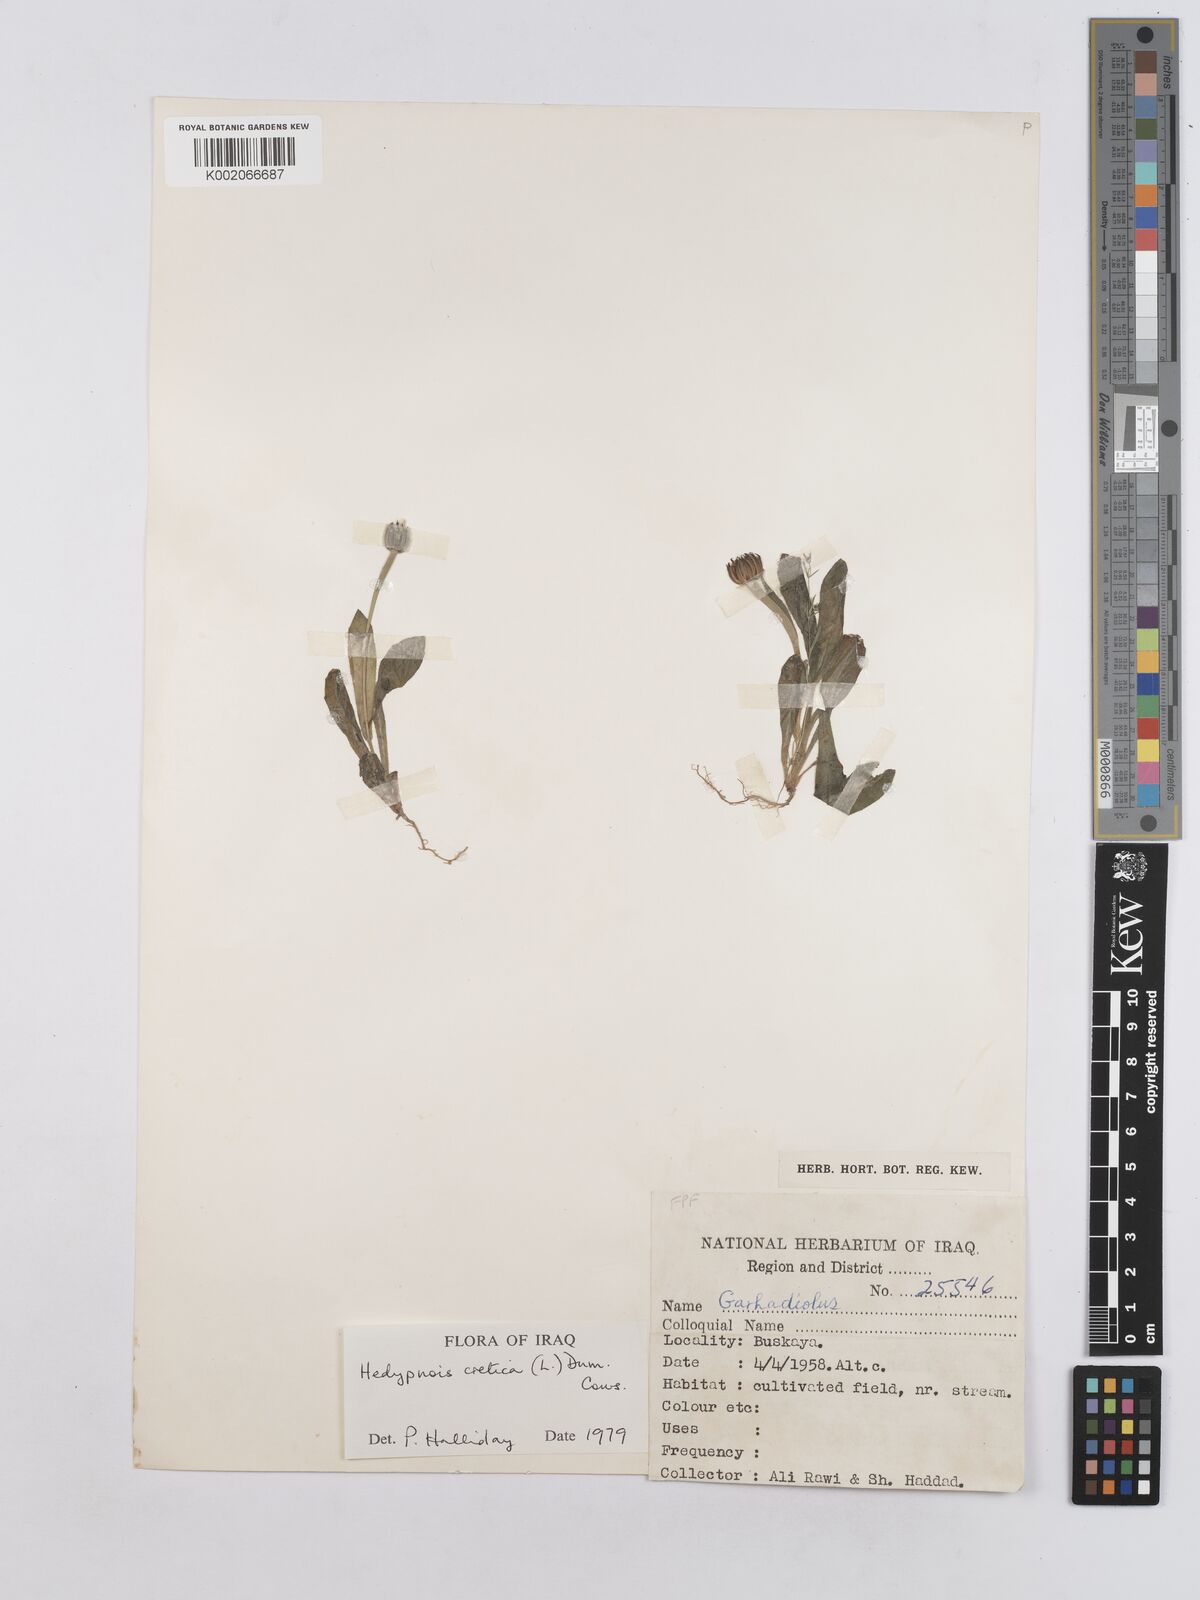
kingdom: Plantae
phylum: Tracheophyta
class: Magnoliopsida
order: Asterales
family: Asteraceae
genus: Hedypnois
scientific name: Hedypnois cretica
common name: Scaly hawkbit
